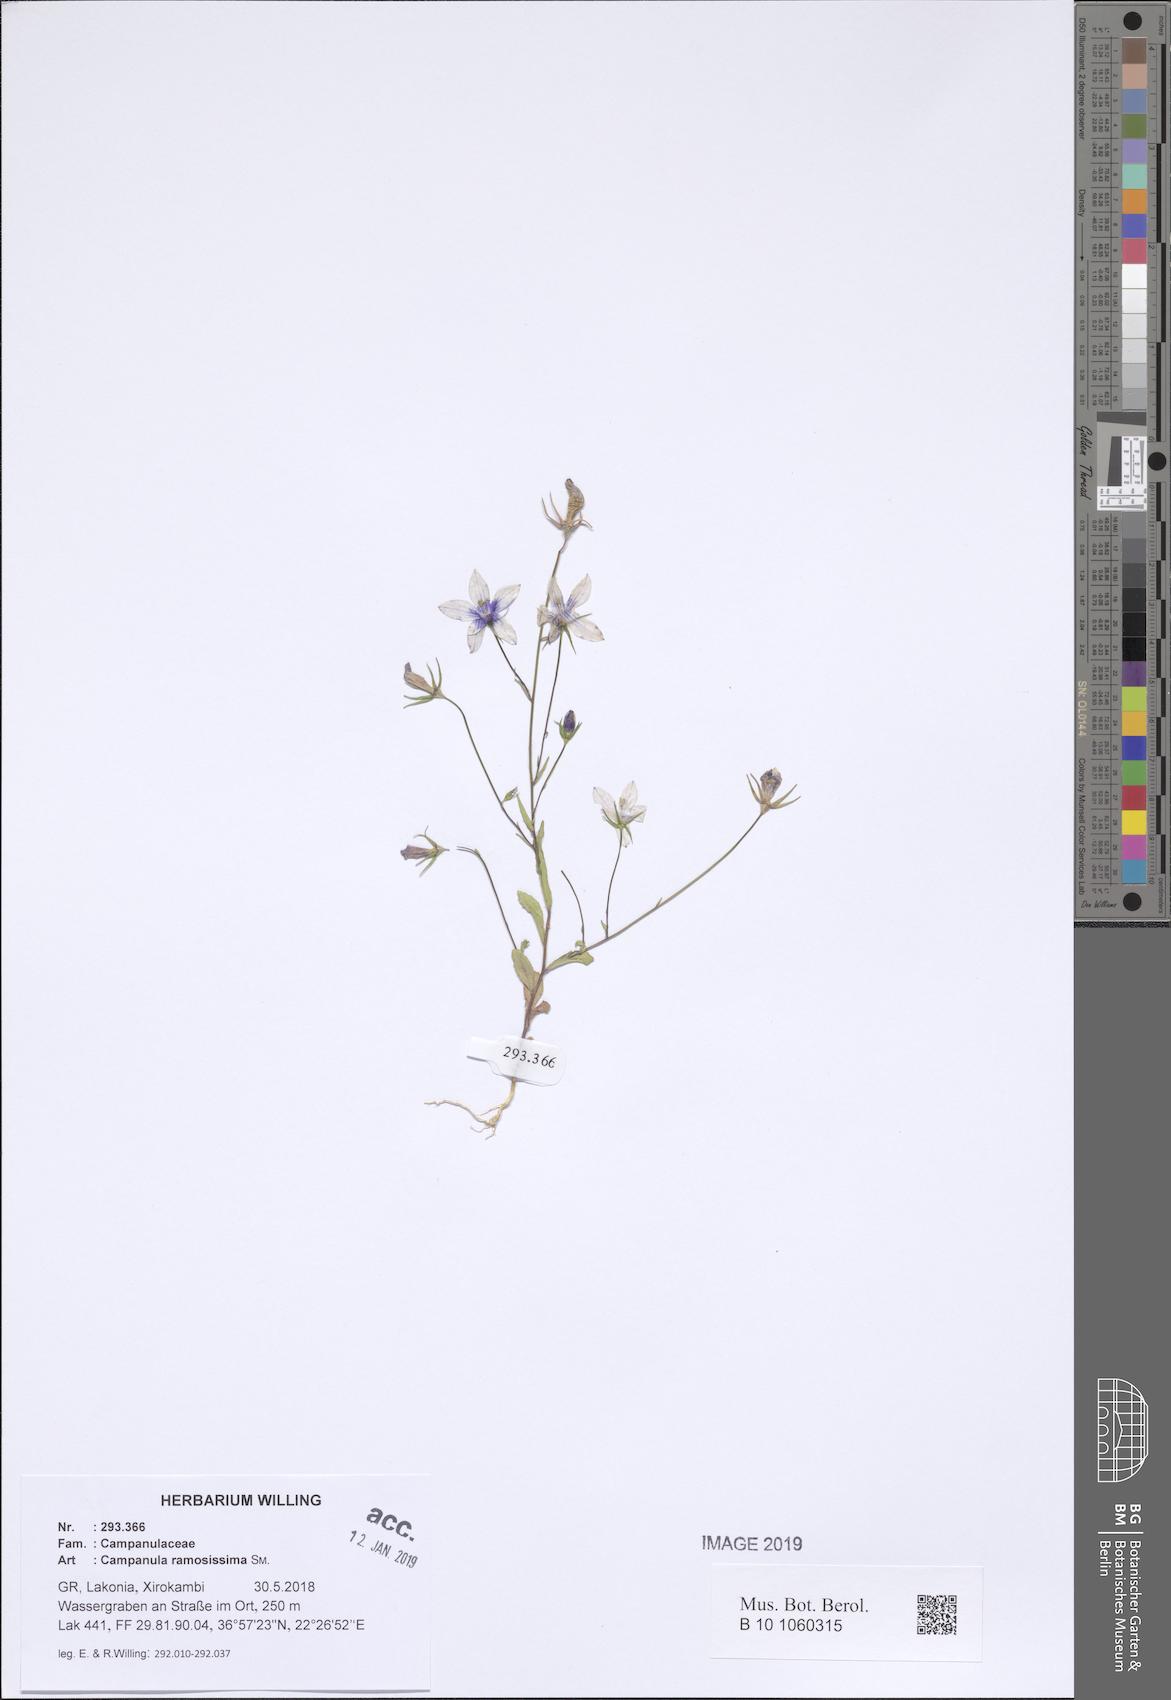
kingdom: Plantae
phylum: Tracheophyta
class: Magnoliopsida
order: Asterales
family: Campanulaceae
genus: Campanula
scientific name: Campanula ramosissima
